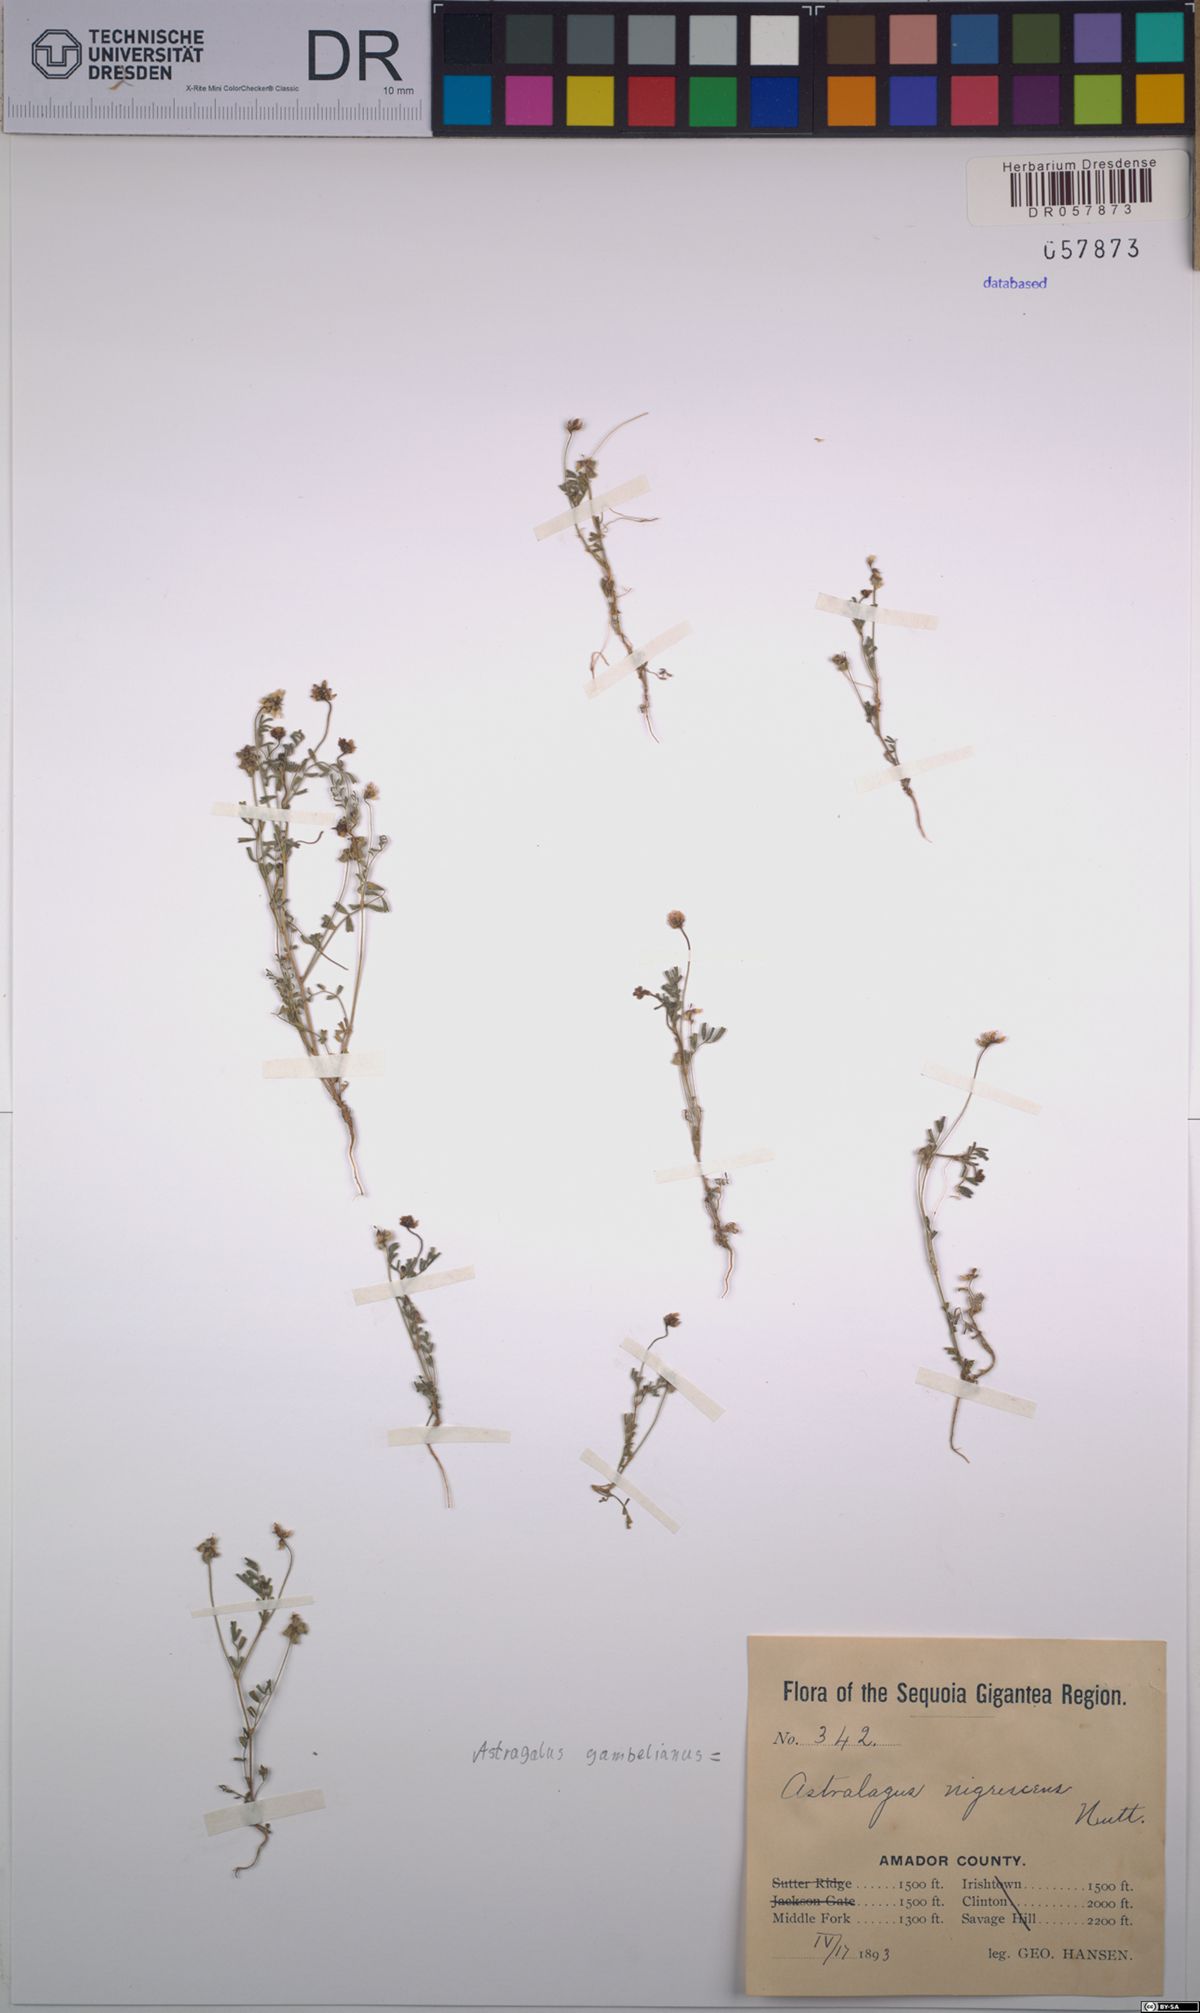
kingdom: Plantae
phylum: Tracheophyta
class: Magnoliopsida
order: Fabales
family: Fabaceae
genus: Astragalus
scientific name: Astragalus gambelianus
